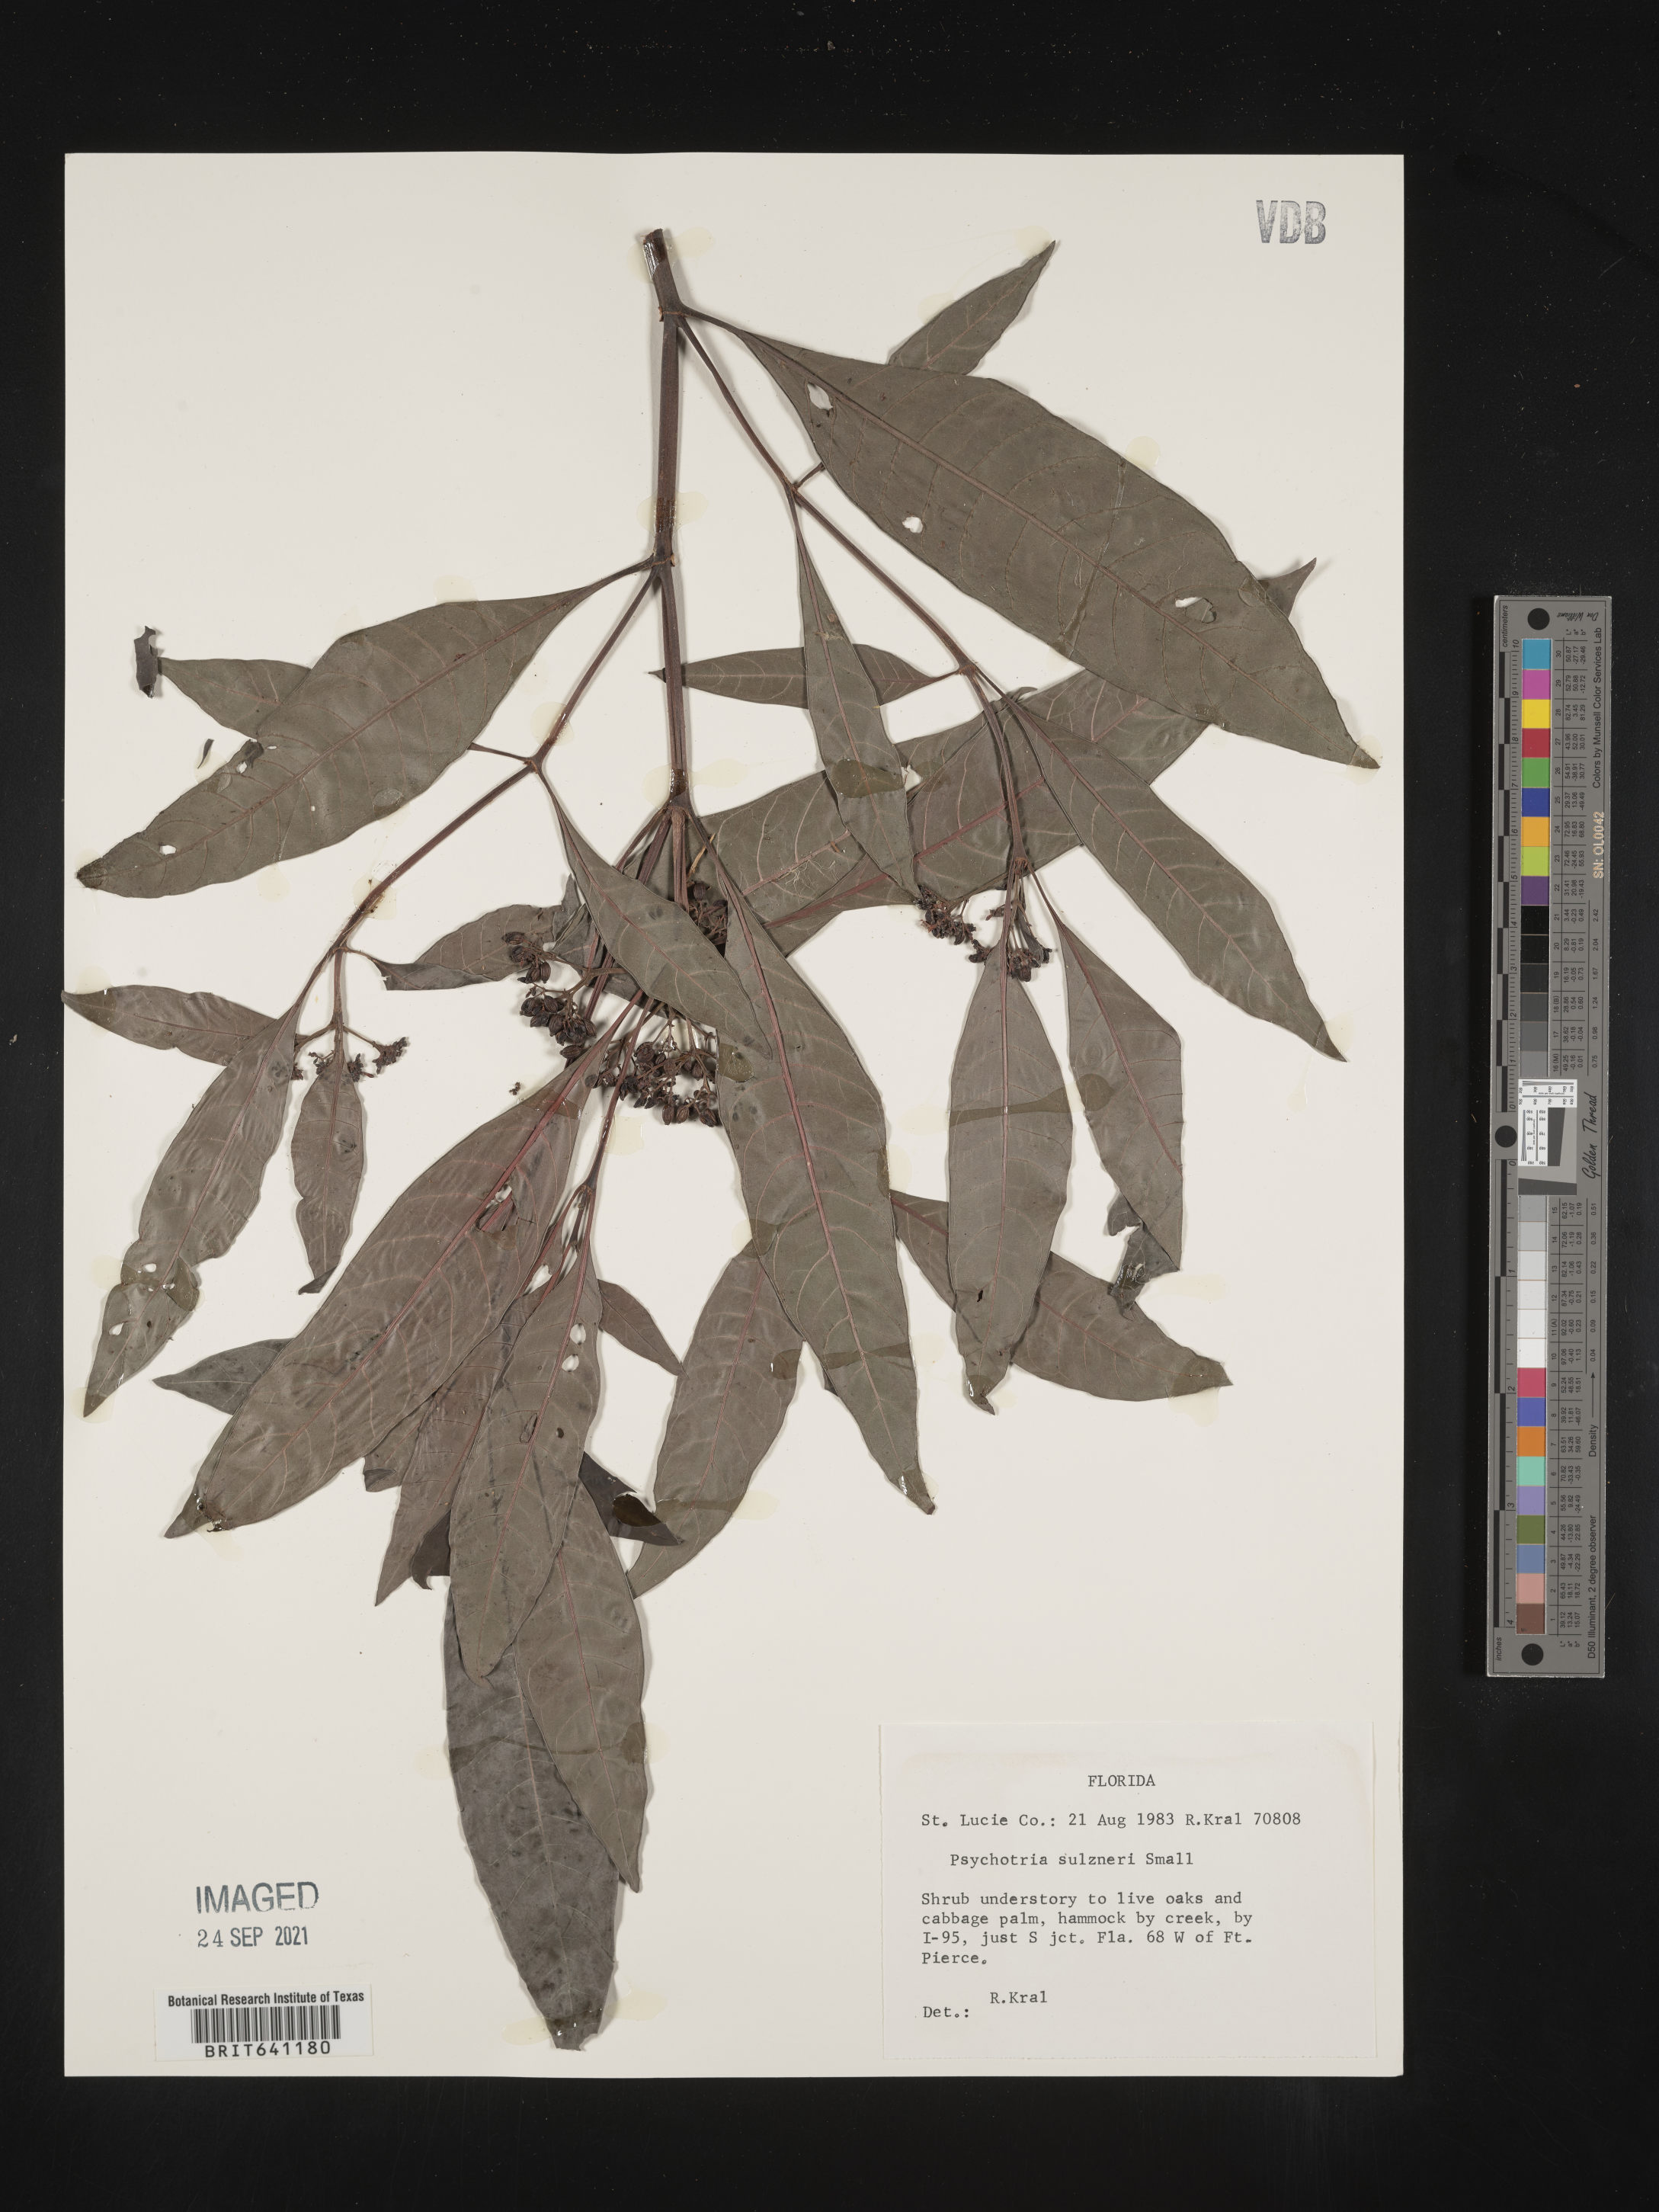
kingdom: Plantae
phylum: Tracheophyta
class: Magnoliopsida
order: Gentianales
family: Rubiaceae
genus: Psychotria
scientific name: Psychotria tenuifolia
